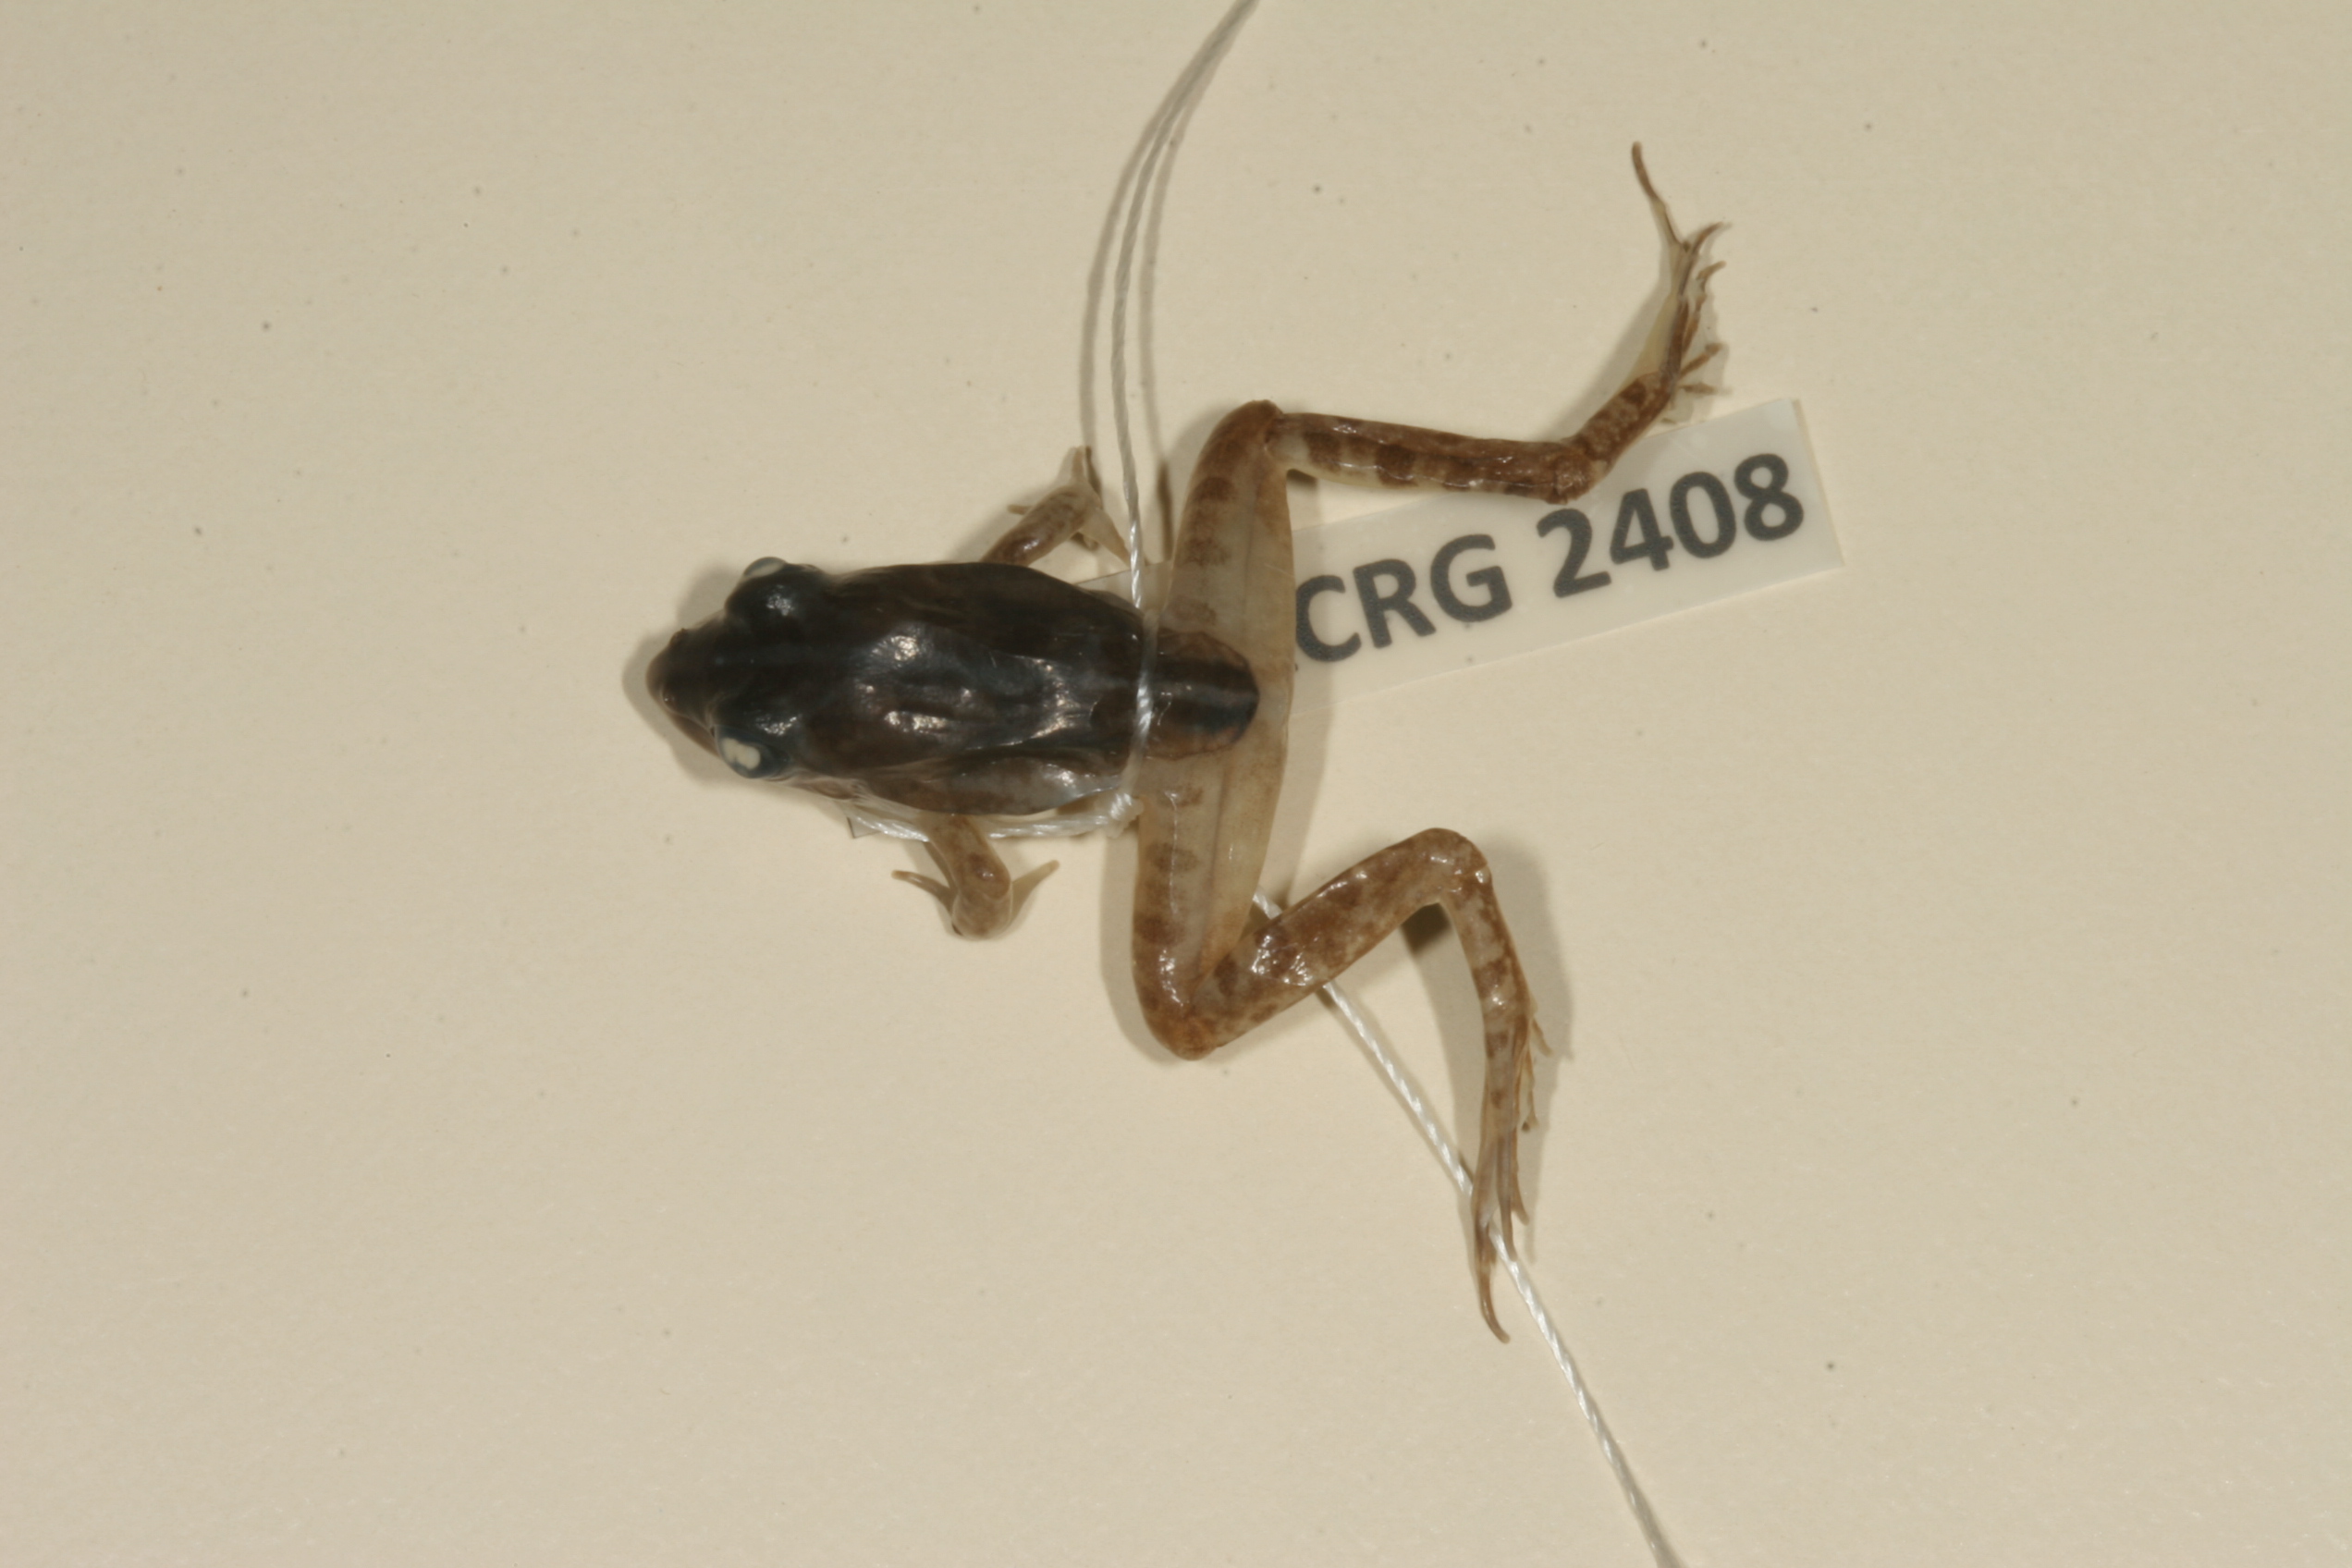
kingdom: Animalia
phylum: Chordata
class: Amphibia
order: Anura
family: Pyxicephalidae
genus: Amietia
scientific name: Amietia delalandii
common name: Delalande's river frog
